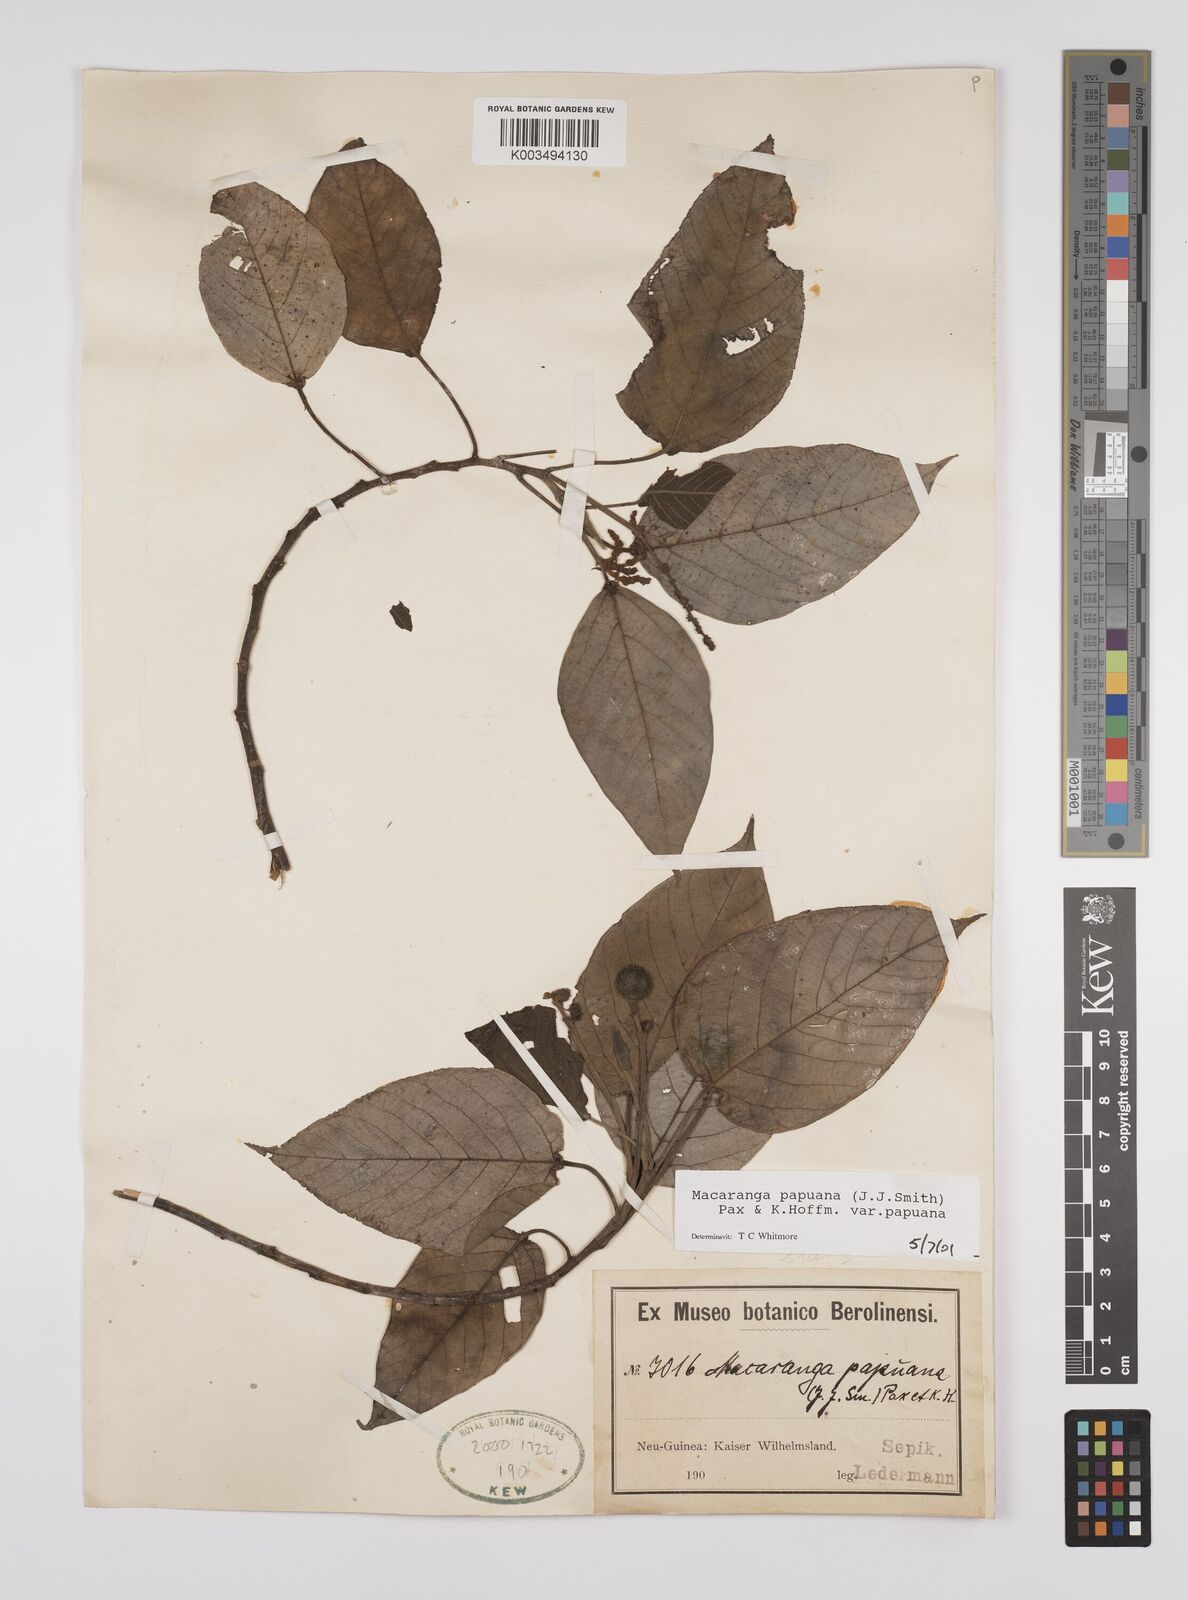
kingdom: Plantae
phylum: Tracheophyta
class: Magnoliopsida
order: Malpighiales
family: Euphorbiaceae
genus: Macaranga
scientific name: Macaranga aleuritoides
